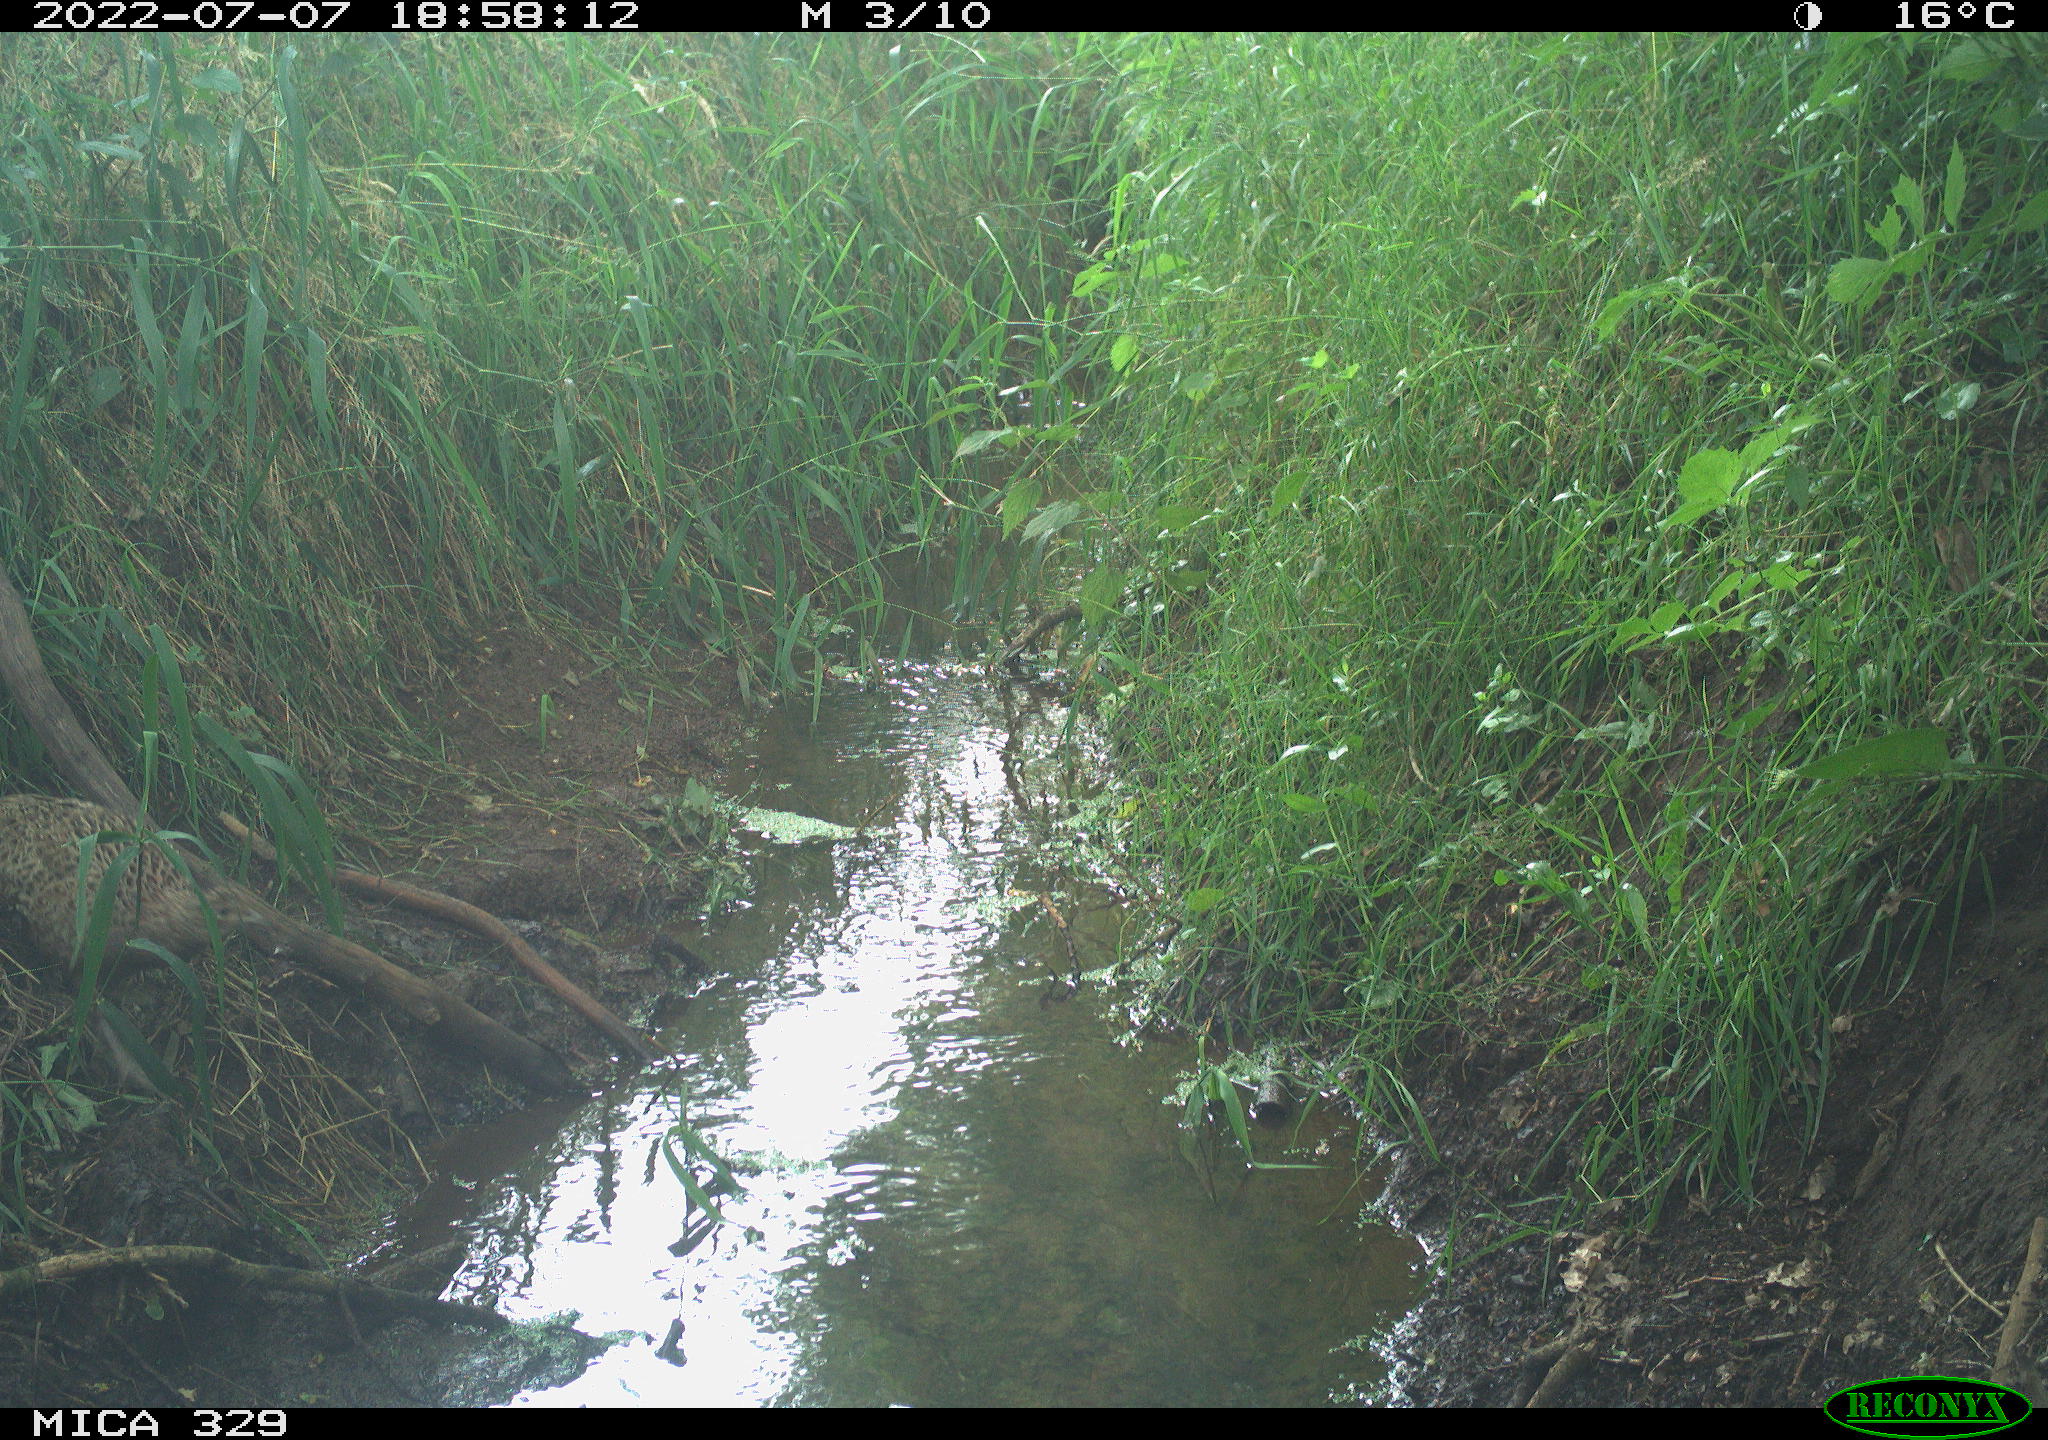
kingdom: Animalia
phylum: Chordata
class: Aves
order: Galliformes
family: Phasianidae
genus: Phasianus
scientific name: Phasianus colchicus
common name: Common pheasant
